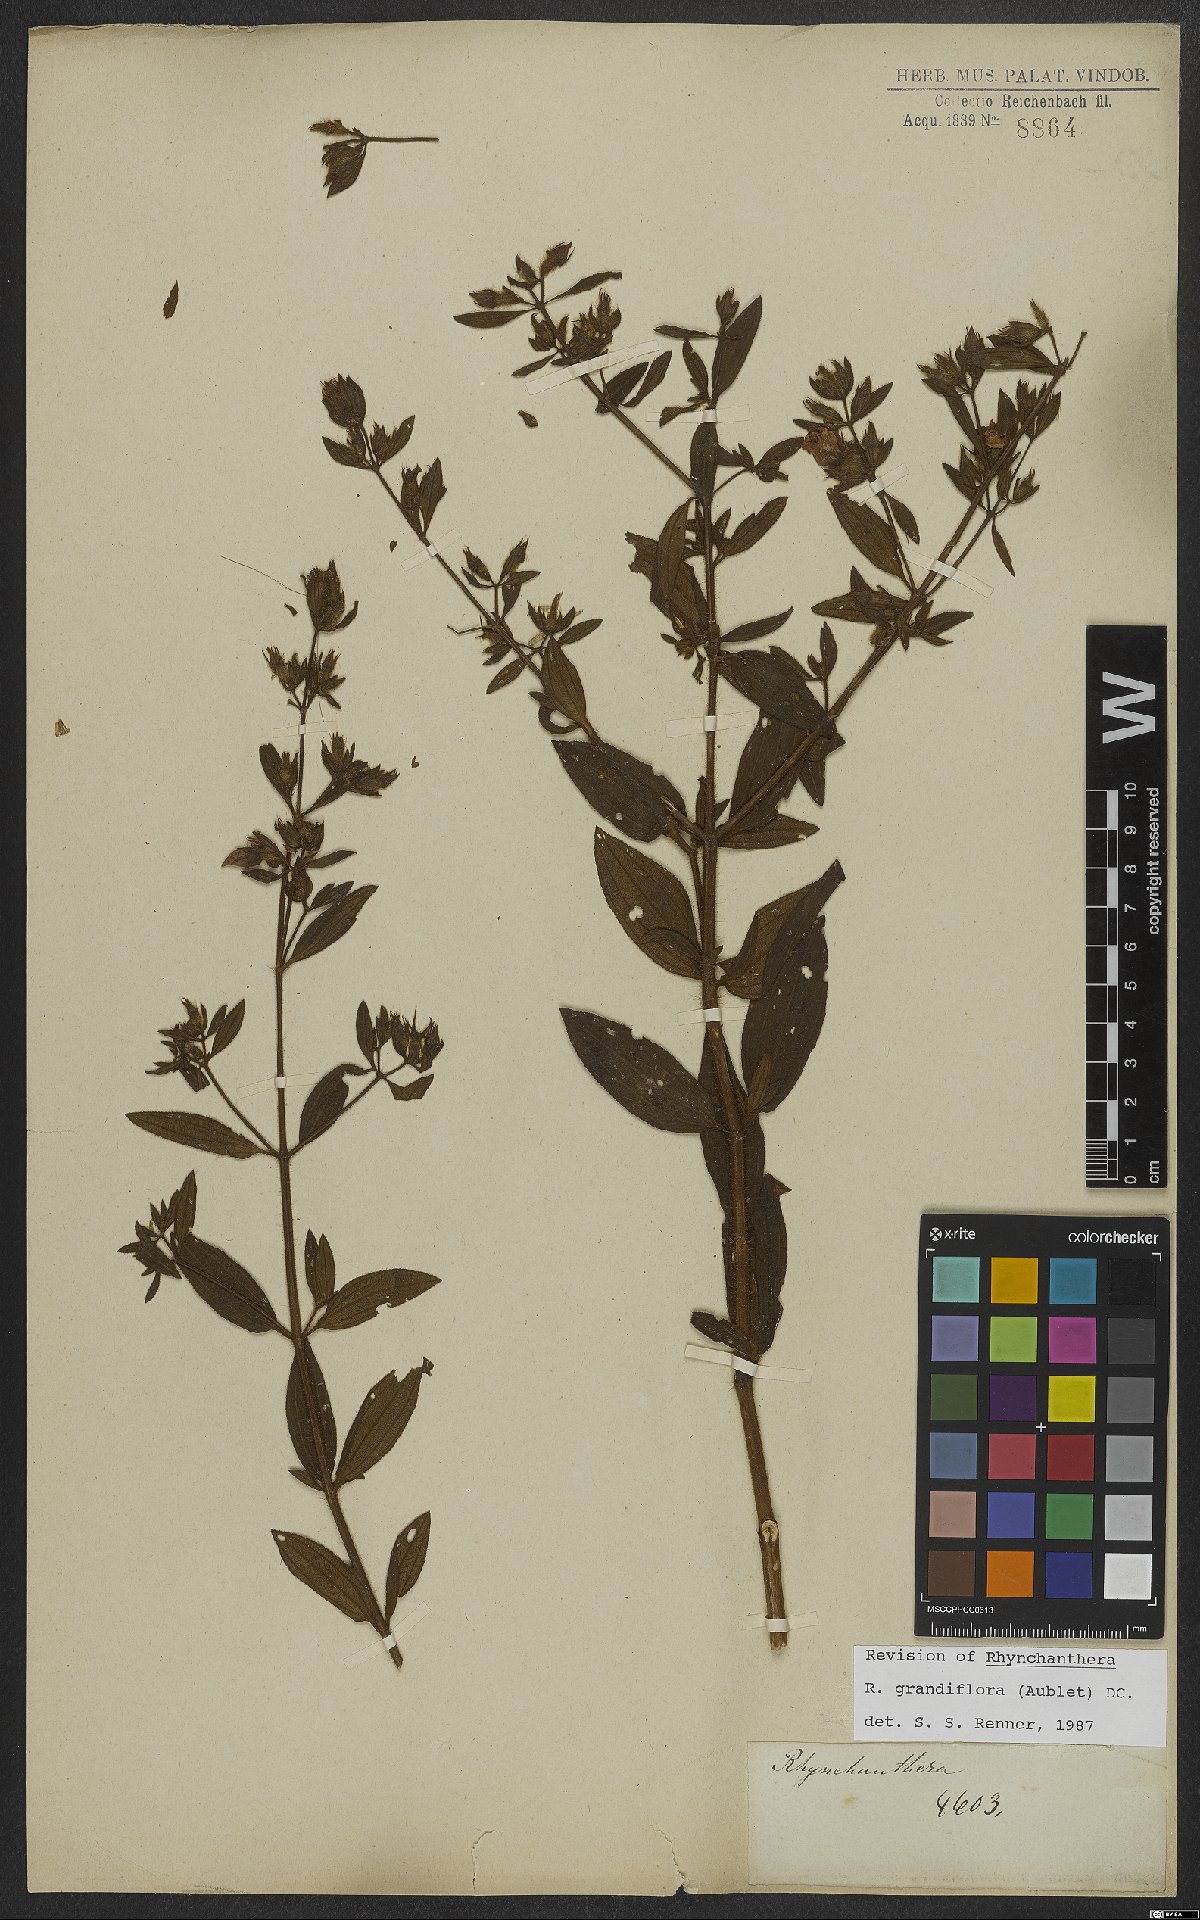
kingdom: Plantae
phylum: Tracheophyta
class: Magnoliopsida
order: Myrtales
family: Melastomataceae
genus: Rhynchanthera
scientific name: Rhynchanthera grandiflora
